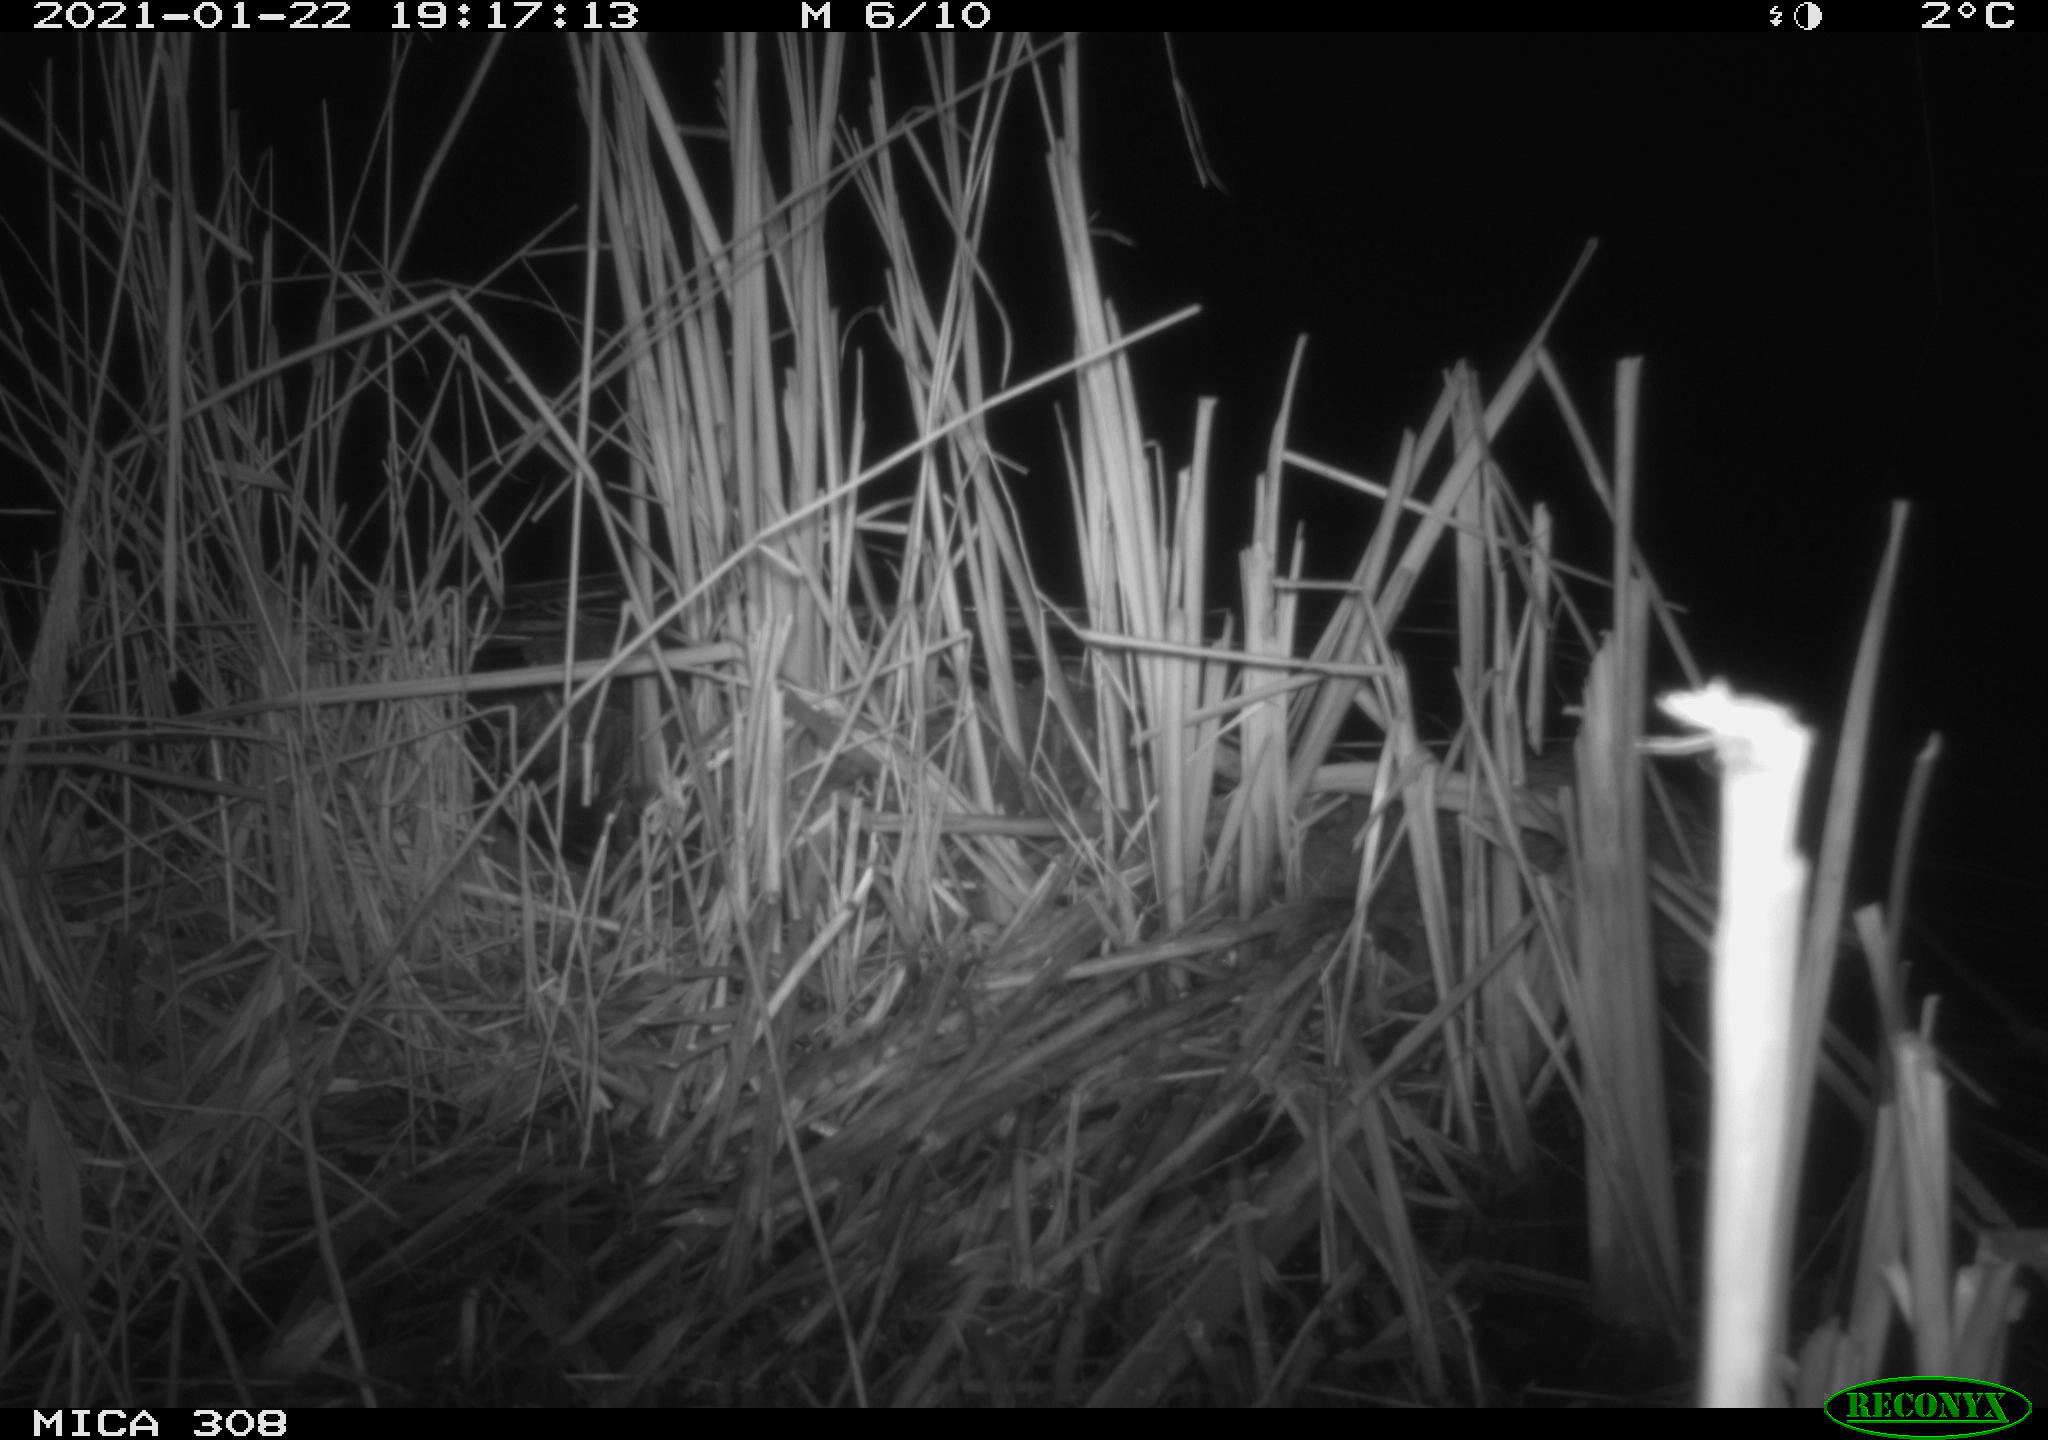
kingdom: Animalia
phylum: Chordata
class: Aves
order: Gruiformes
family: Rallidae
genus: Gallinula
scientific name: Gallinula chloropus
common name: Common moorhen
